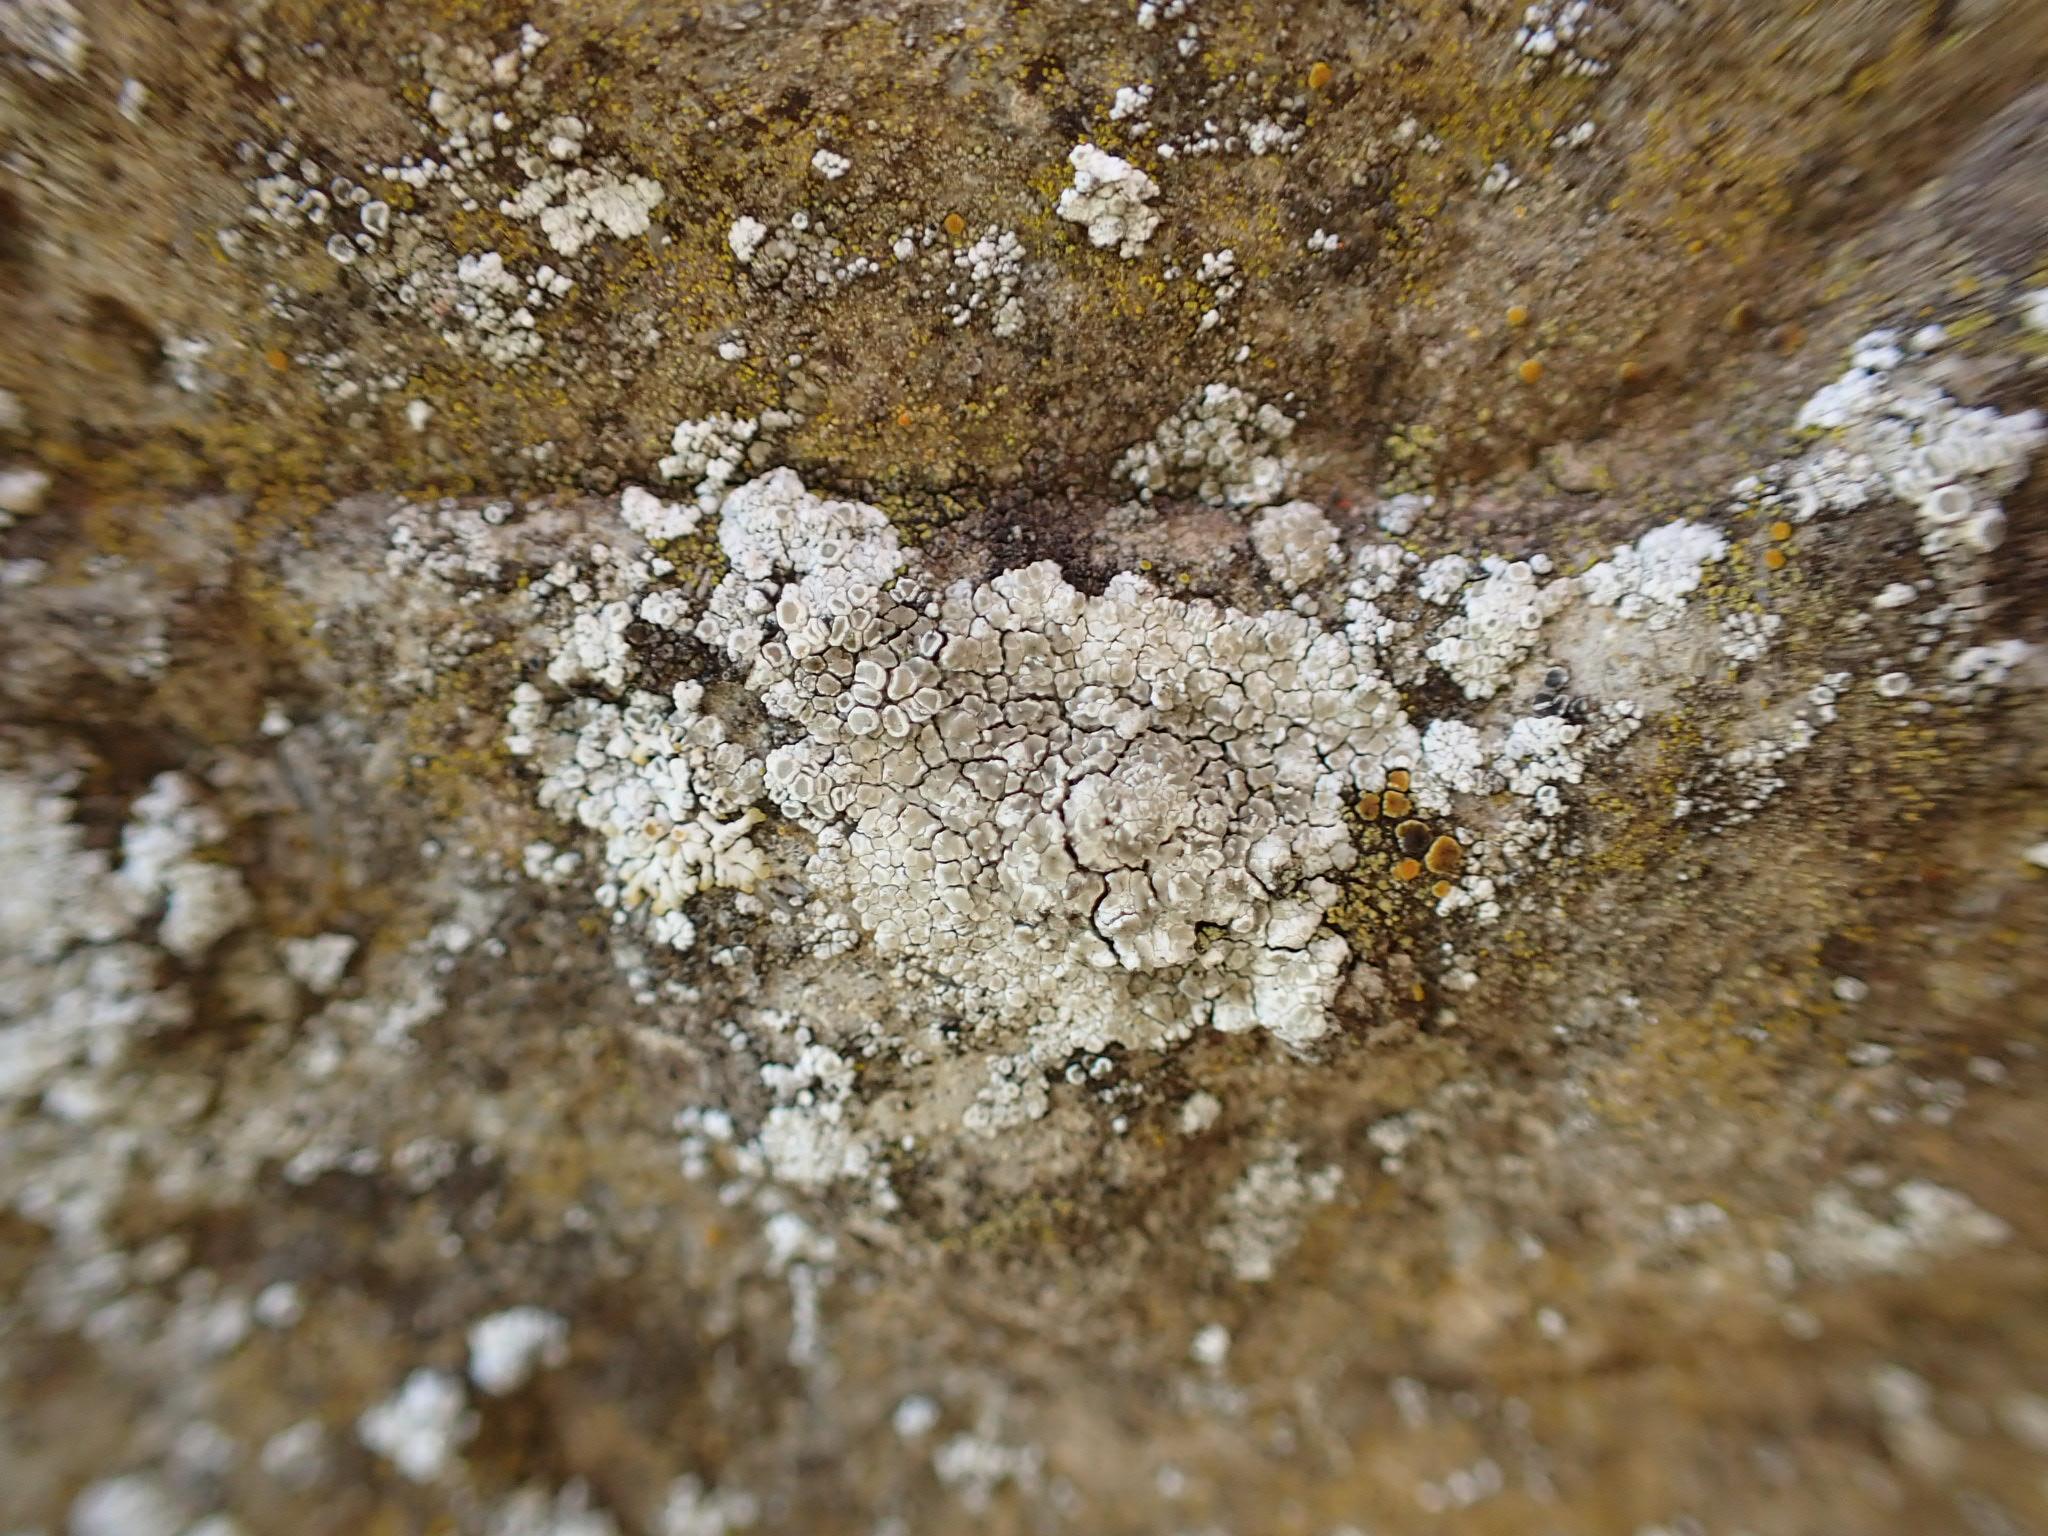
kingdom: Fungi
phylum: Ascomycota
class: Lecanoromycetes
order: Lecanorales
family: Lecanoraceae
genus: Polyozosia
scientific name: Polyozosia albescens
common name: cement-kantskivelav
